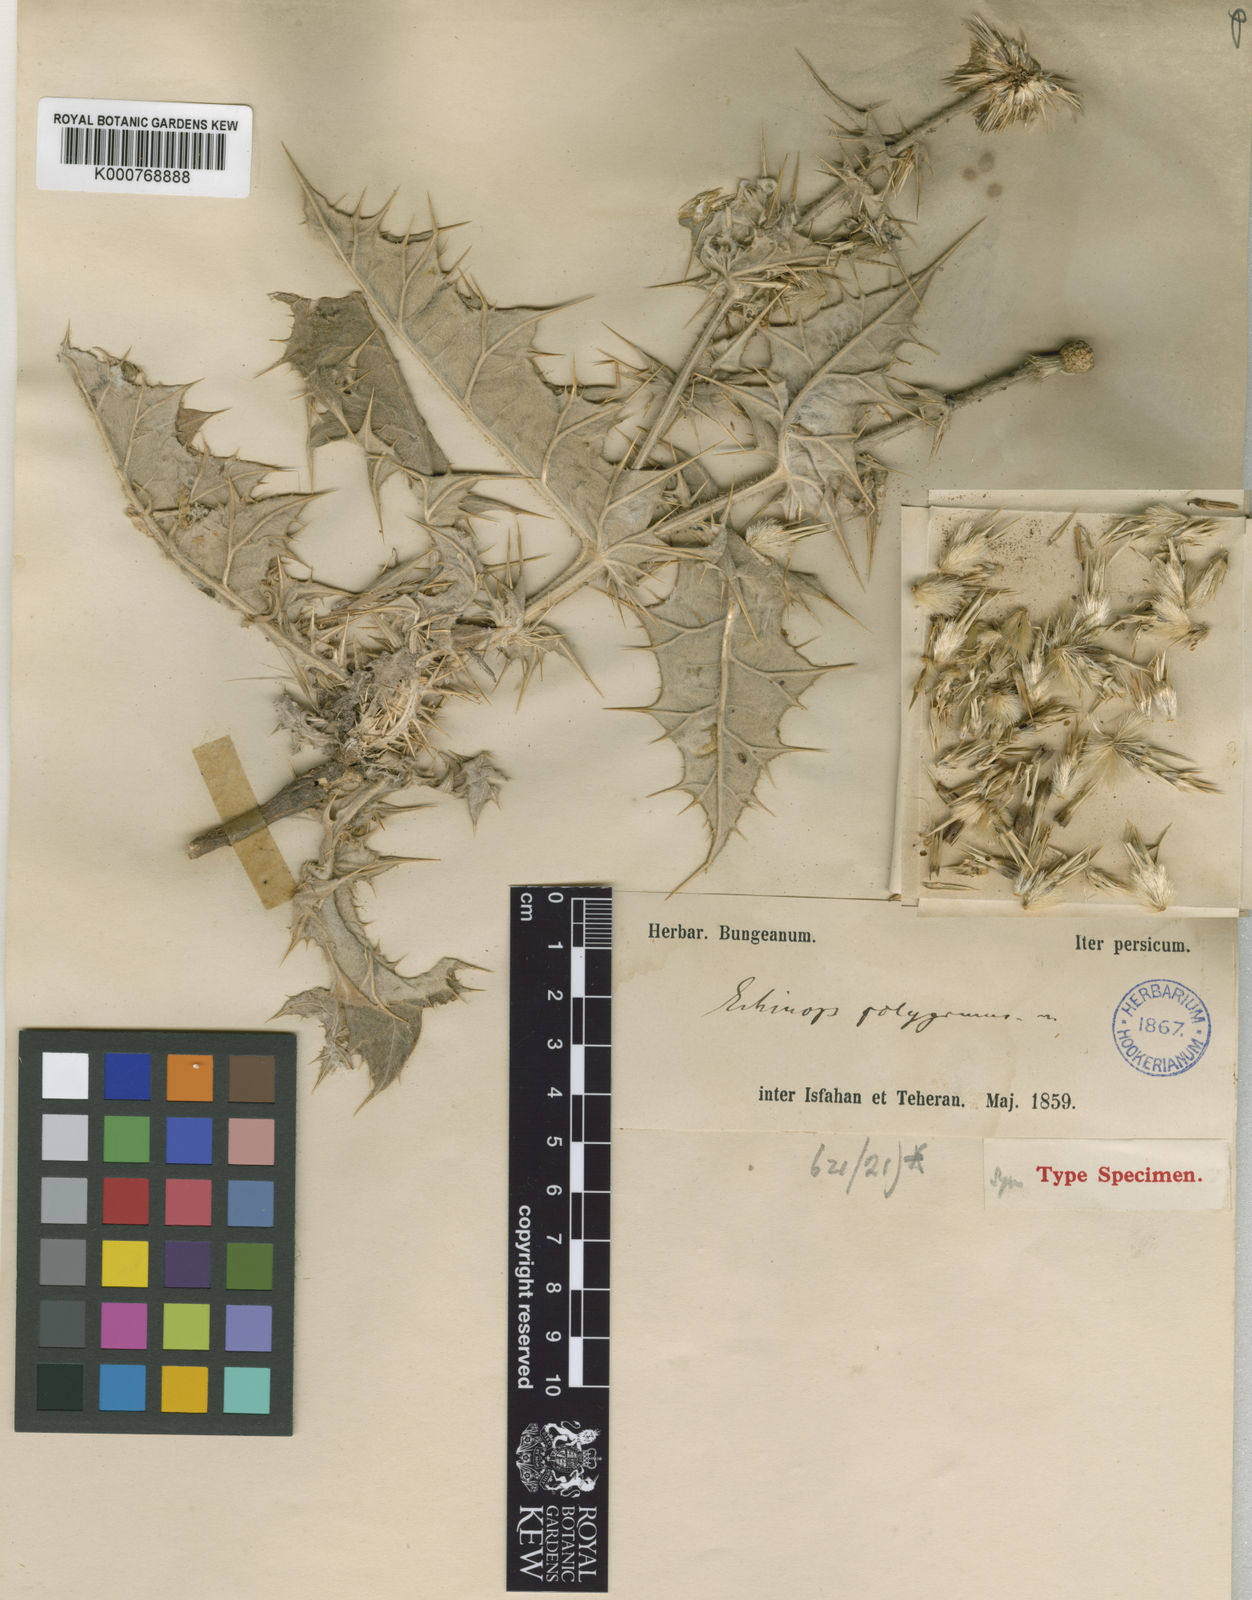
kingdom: Plantae
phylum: Tracheophyta
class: Magnoliopsida
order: Asterales
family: Asteraceae
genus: Echinops
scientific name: Echinops polygamus
